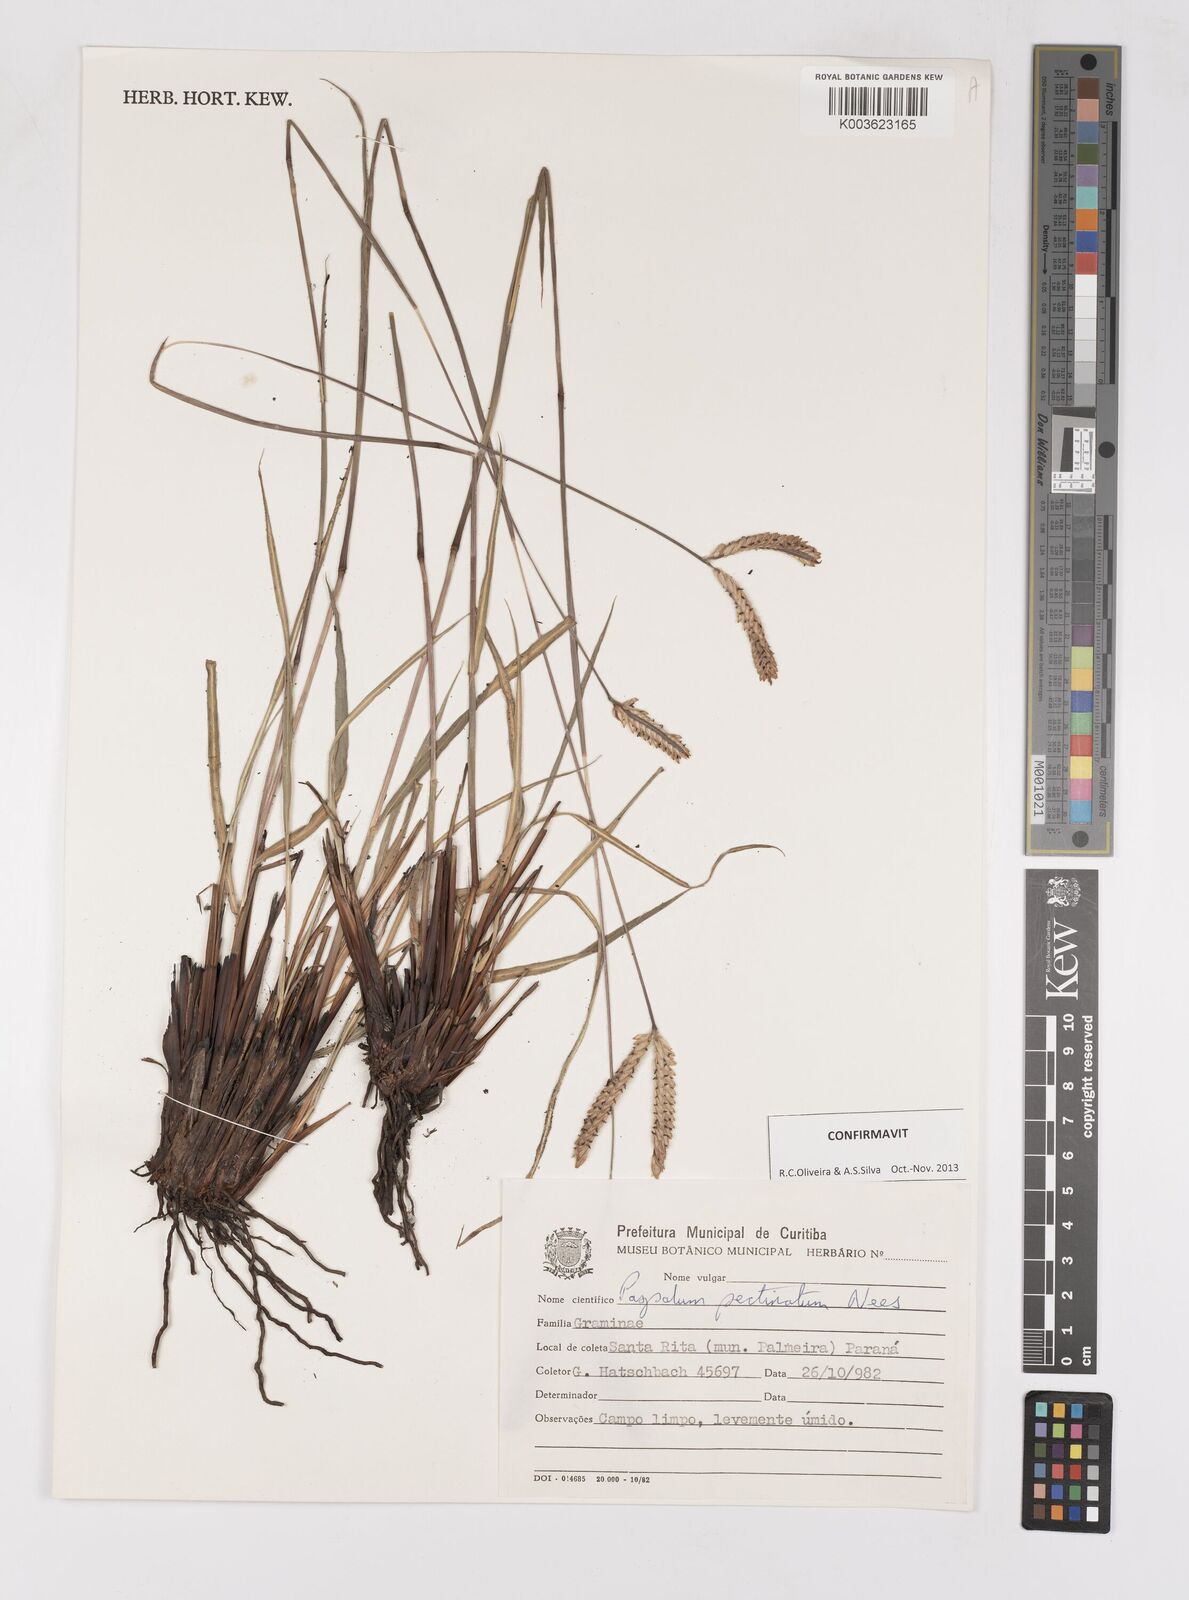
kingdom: Plantae
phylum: Tracheophyta
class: Liliopsida
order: Poales
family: Poaceae
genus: Paspalum
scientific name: Paspalum pectinatum
